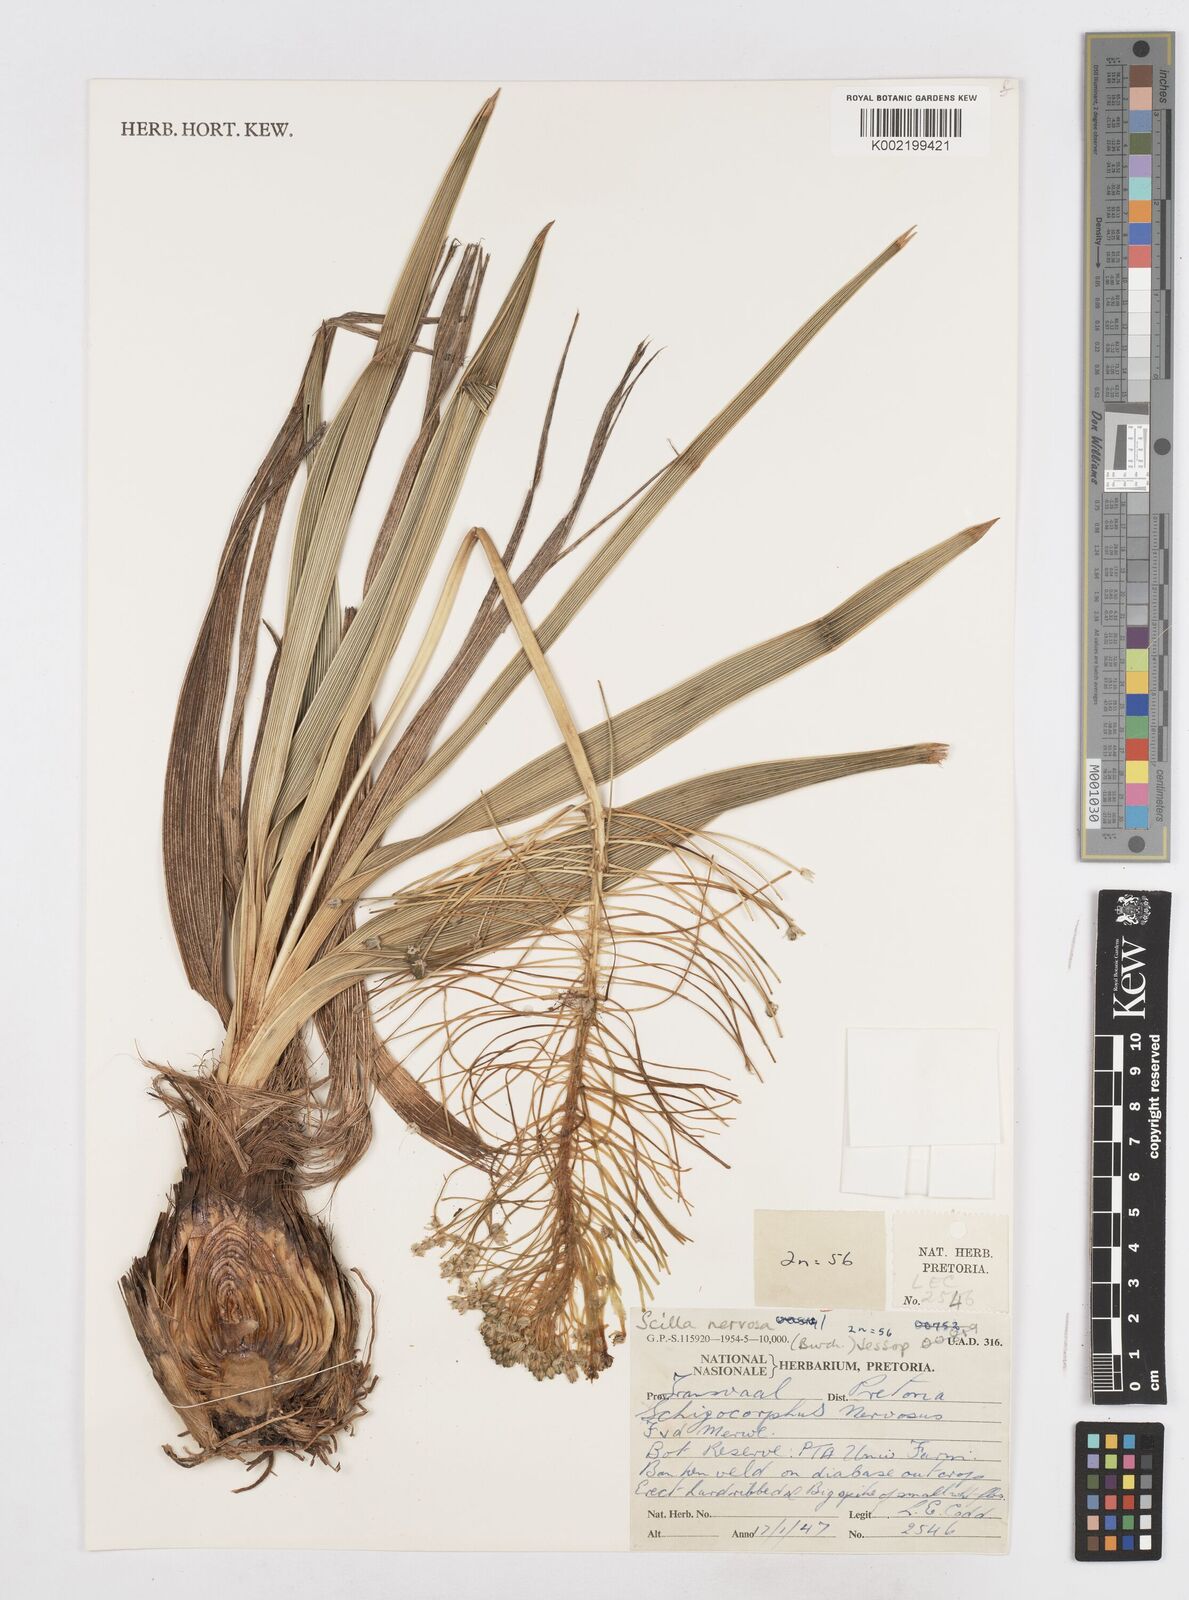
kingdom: Plantae
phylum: Tracheophyta
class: Liliopsida
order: Asparagales
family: Asparagaceae
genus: Schizocarphus
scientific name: Schizocarphus nervosus
